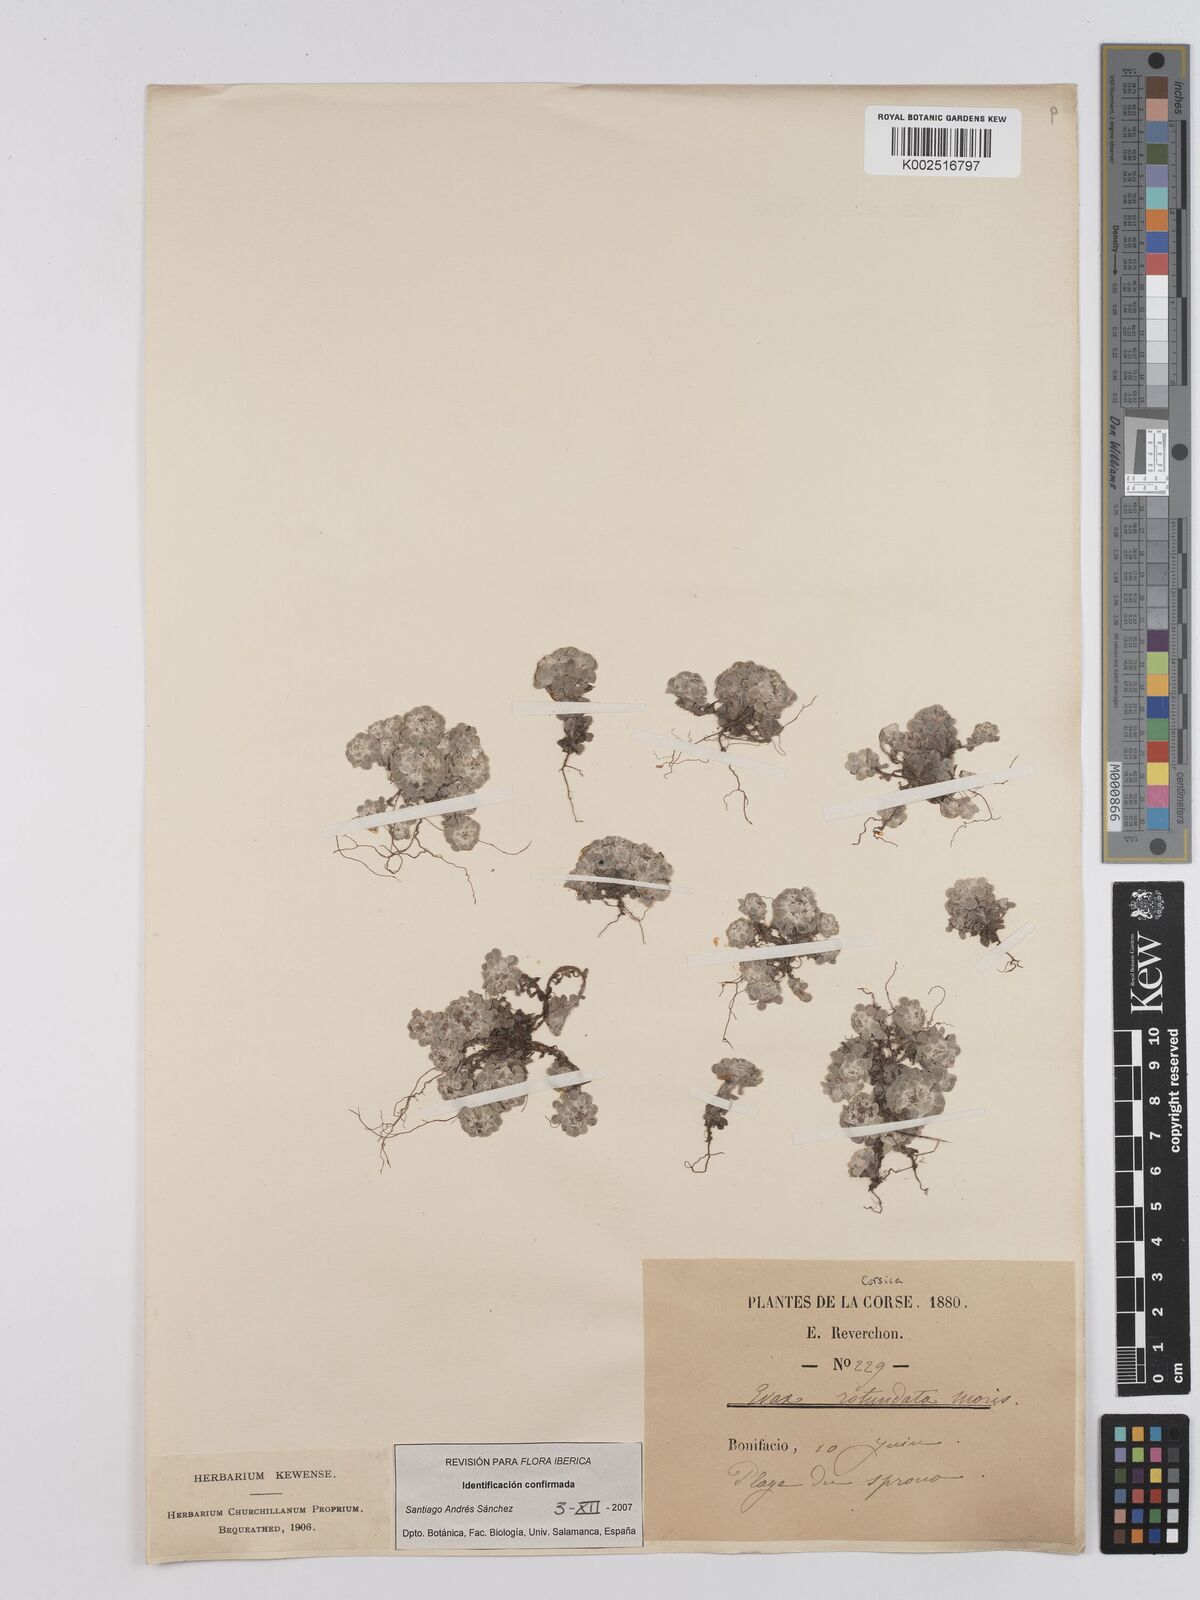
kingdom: Plantae
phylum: Tracheophyta
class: Magnoliopsida
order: Asterales
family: Asteraceae
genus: Filago
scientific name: Filago
